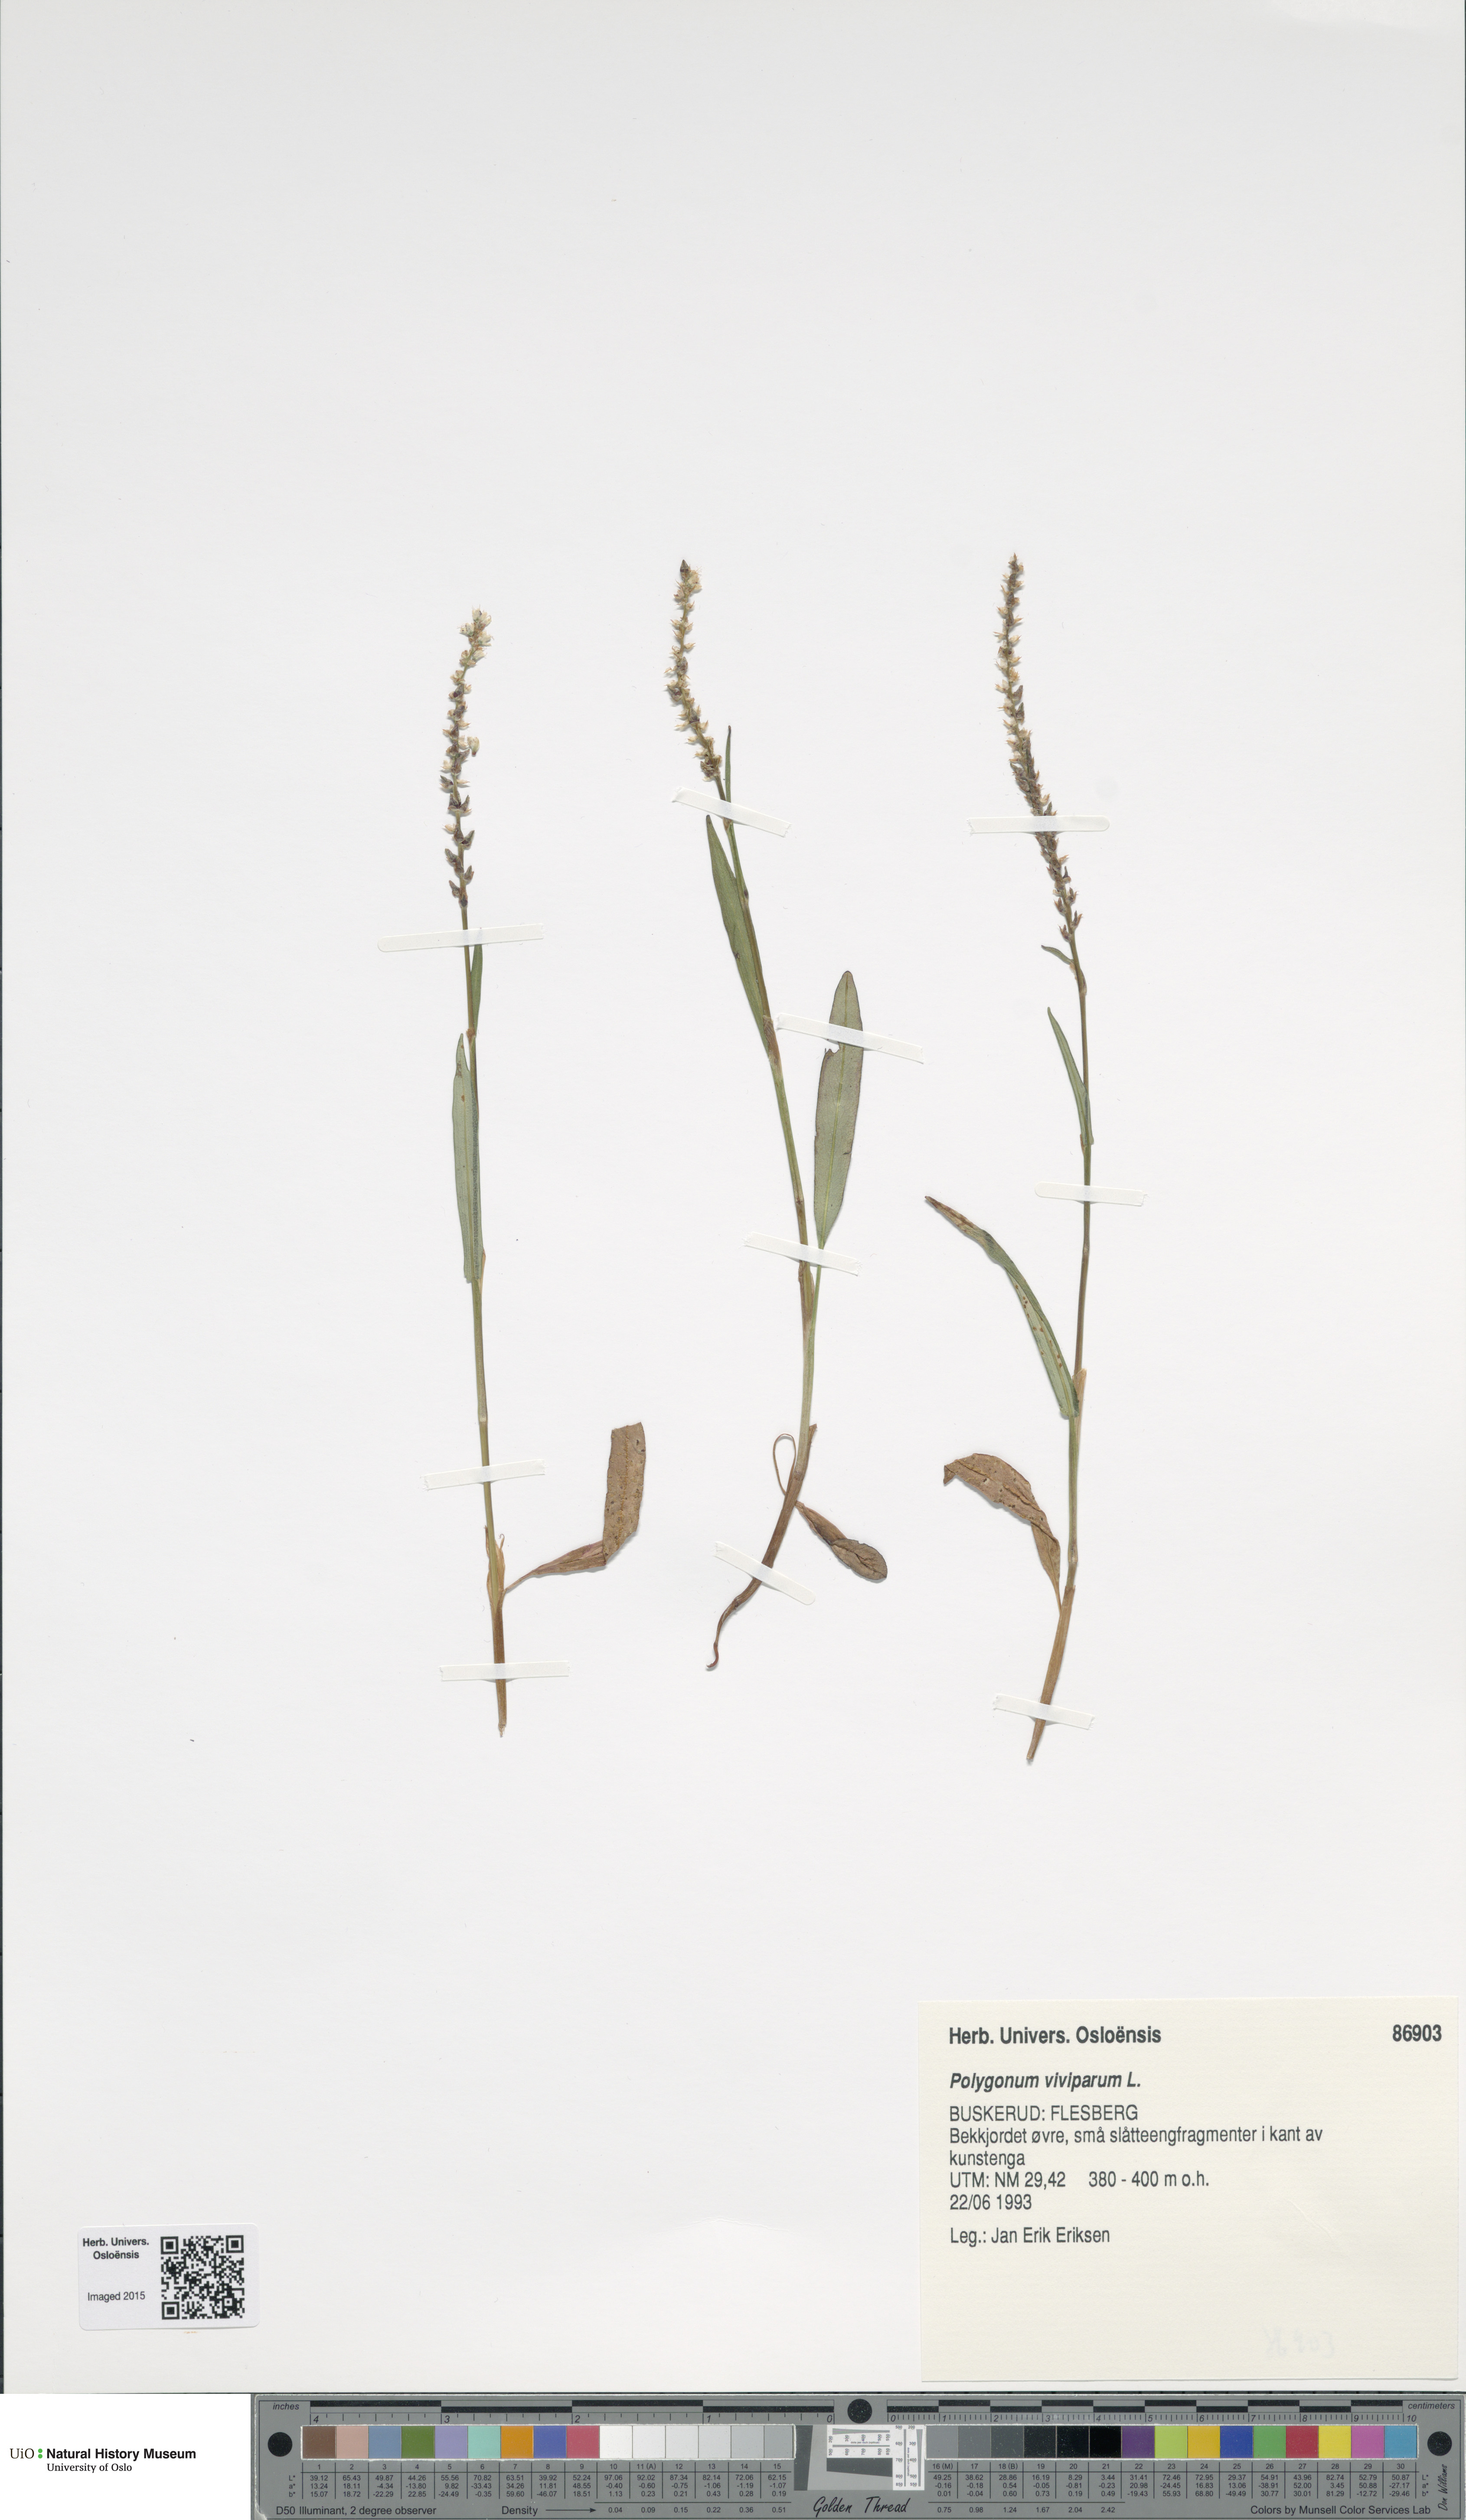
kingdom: Plantae
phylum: Tracheophyta
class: Magnoliopsida
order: Caryophyllales
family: Polygonaceae
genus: Bistorta
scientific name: Bistorta vivipara
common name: Alpine bistort
